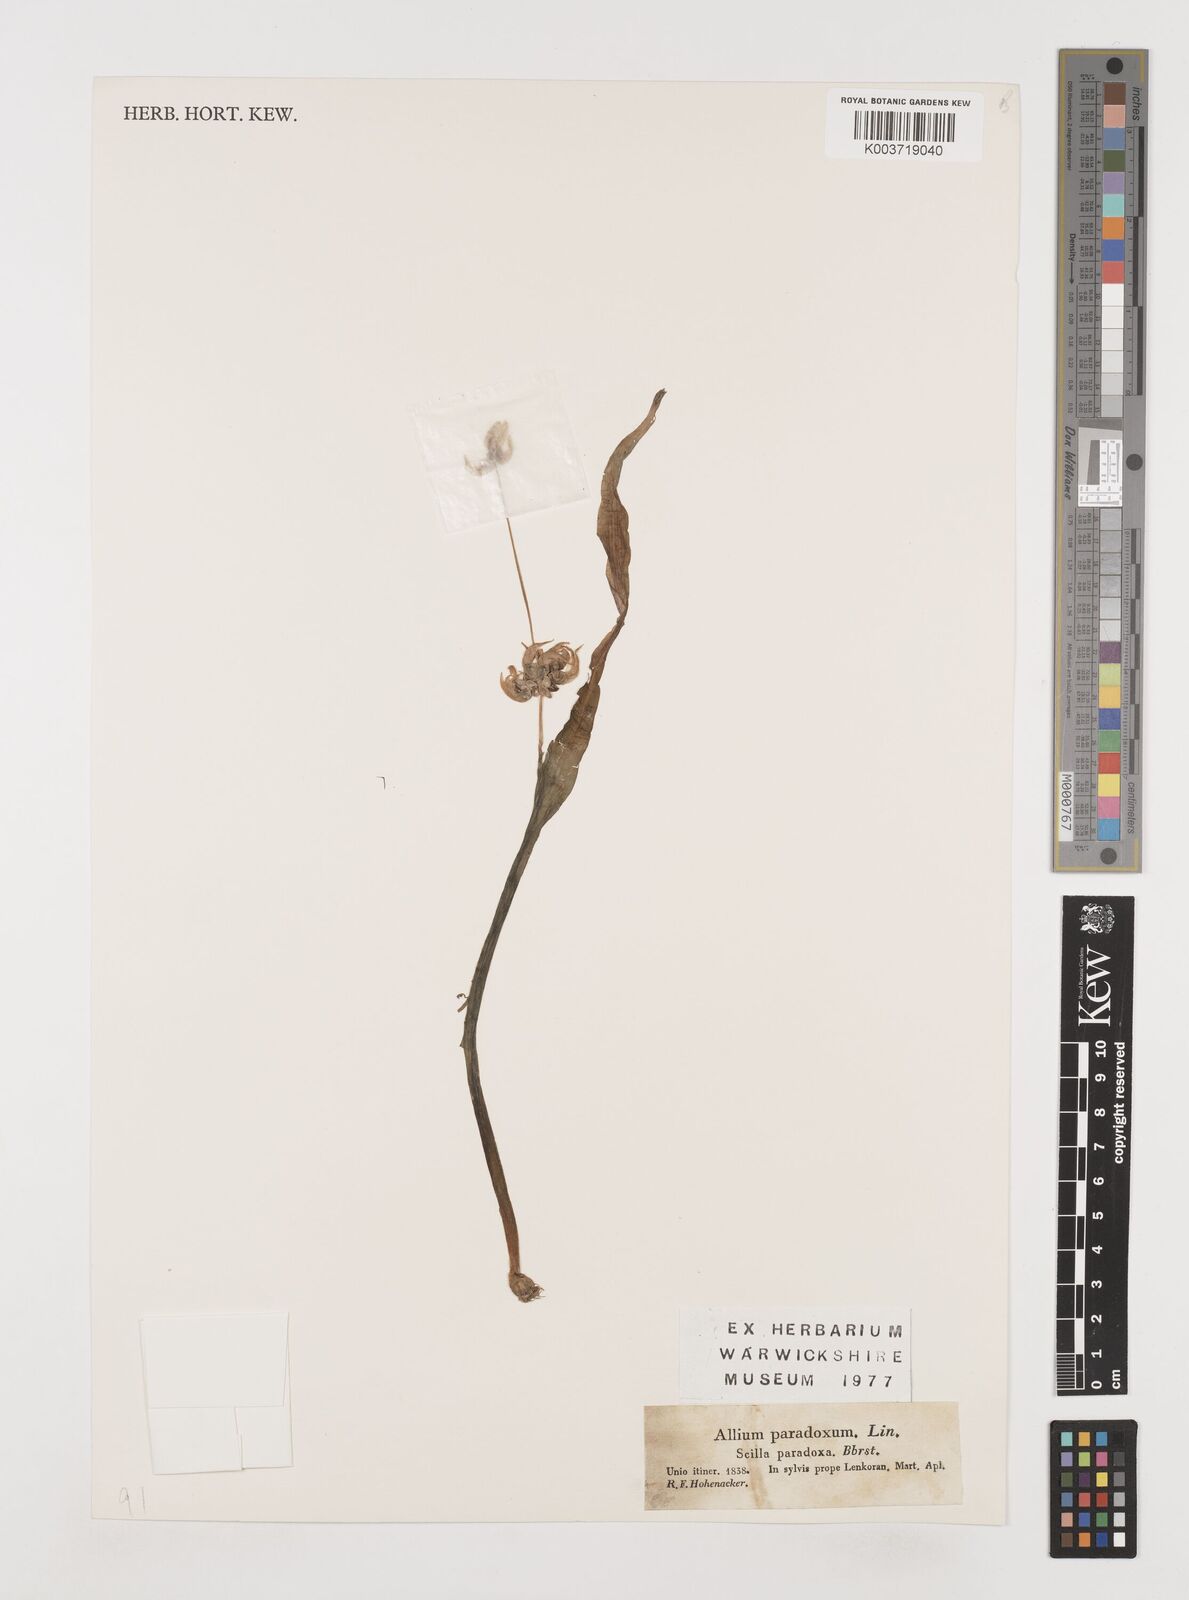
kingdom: Plantae
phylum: Tracheophyta
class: Liliopsida
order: Asparagales
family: Amaryllidaceae
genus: Allium
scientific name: Allium paradoxum
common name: Few-flowered garlic
